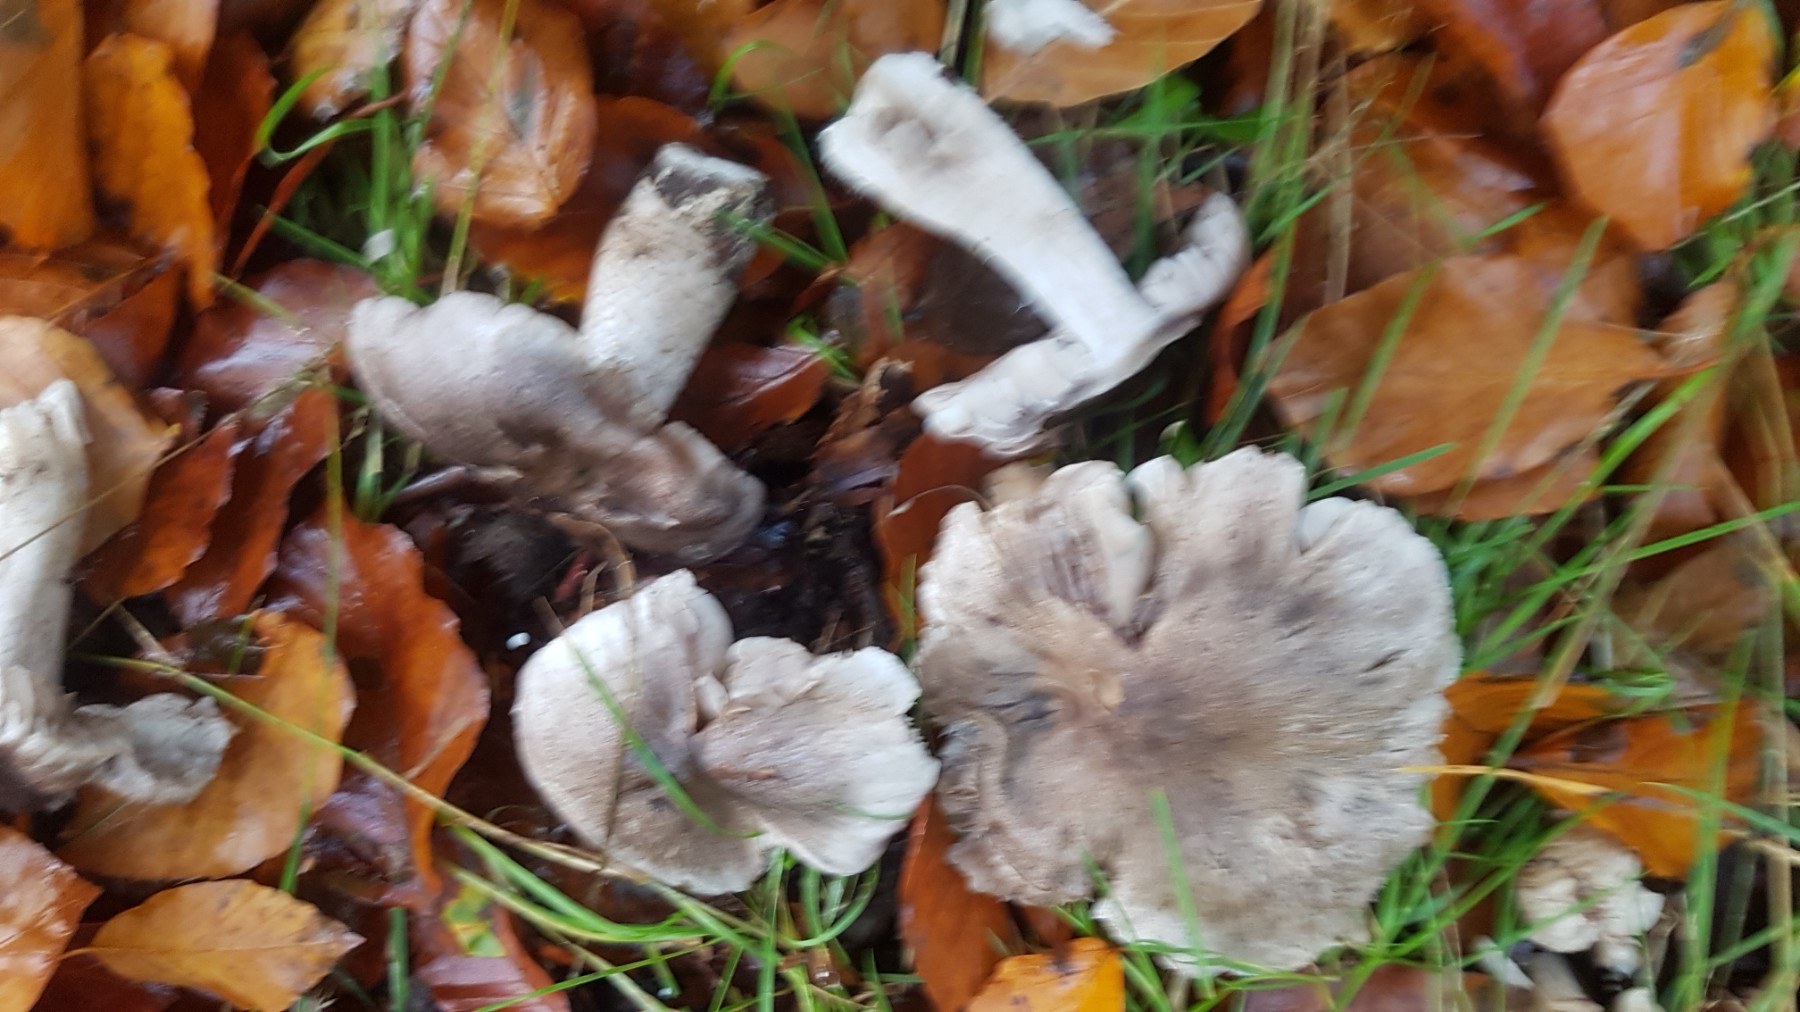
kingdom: Fungi
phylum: Basidiomycota
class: Agaricomycetes
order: Agaricales
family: Tricholomataceae
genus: Tricholoma
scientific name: Tricholoma sciodes
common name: stribet ridderhat
